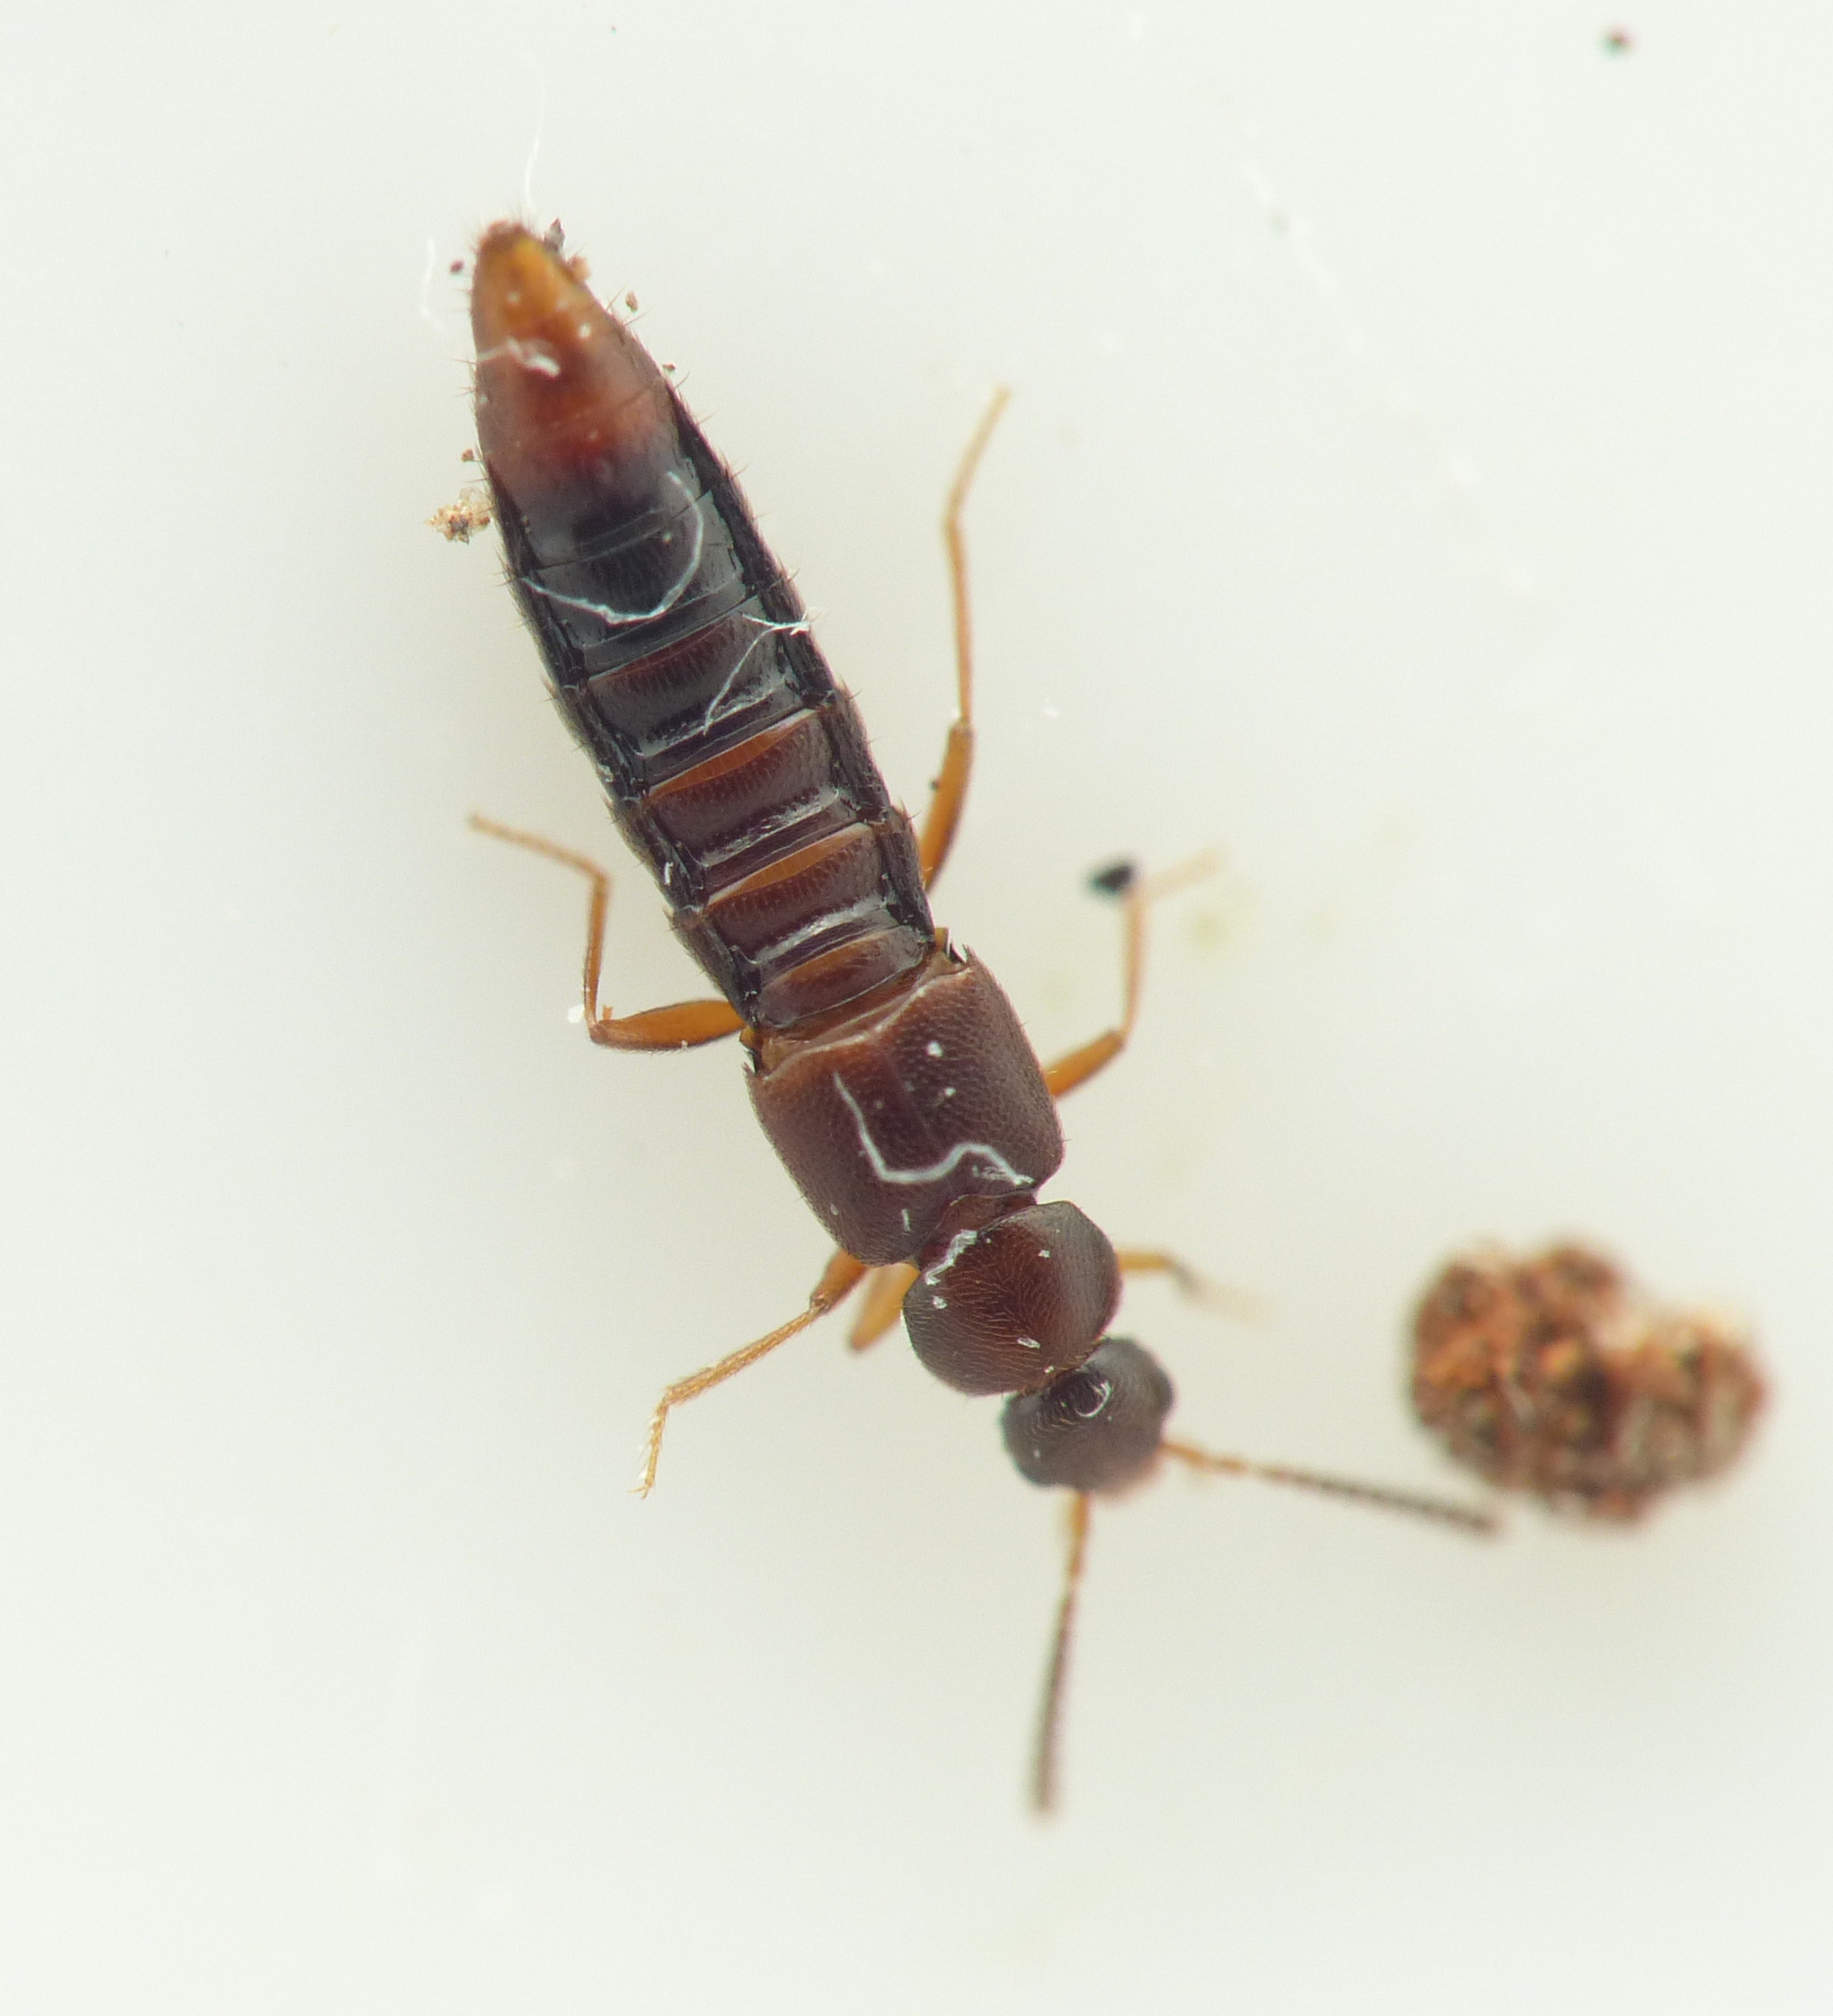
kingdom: Animalia
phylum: Arthropoda
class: Insecta
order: Coleoptera
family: Staphylinidae
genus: Leptusa
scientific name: Leptusa fumida
